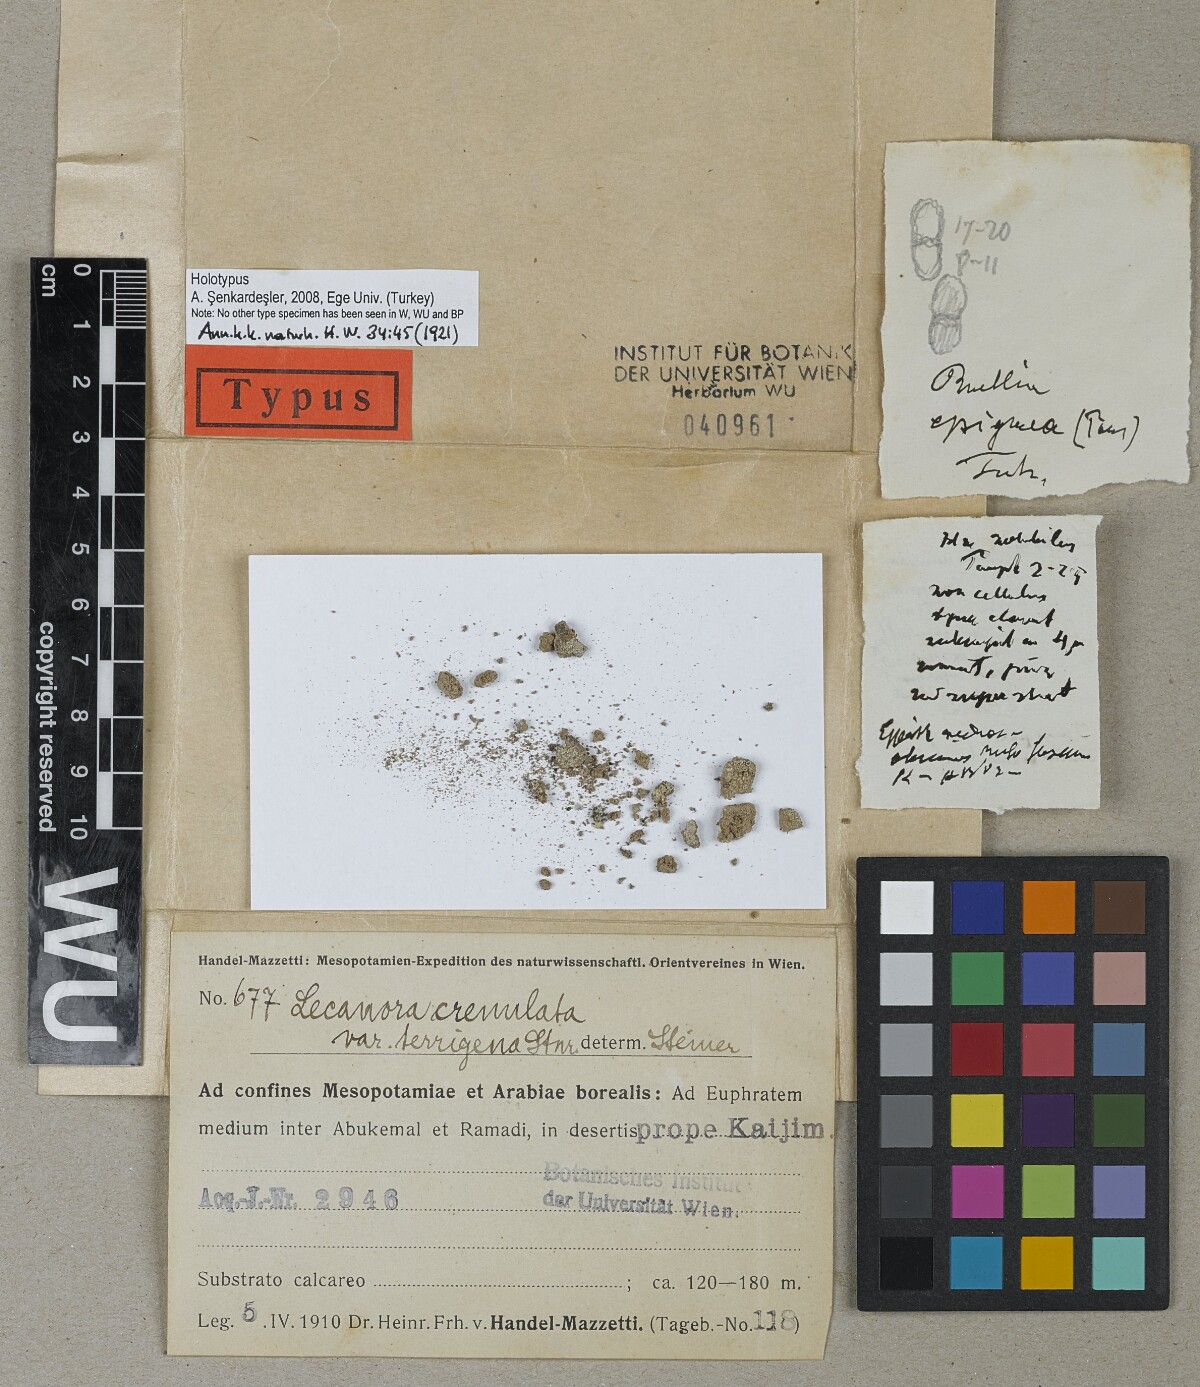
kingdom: Fungi
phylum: Ascomycota
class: Lecanoromycetes
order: Lecanorales
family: Lecanoraceae
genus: Myriolecis
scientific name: Myriolecis crenulata
